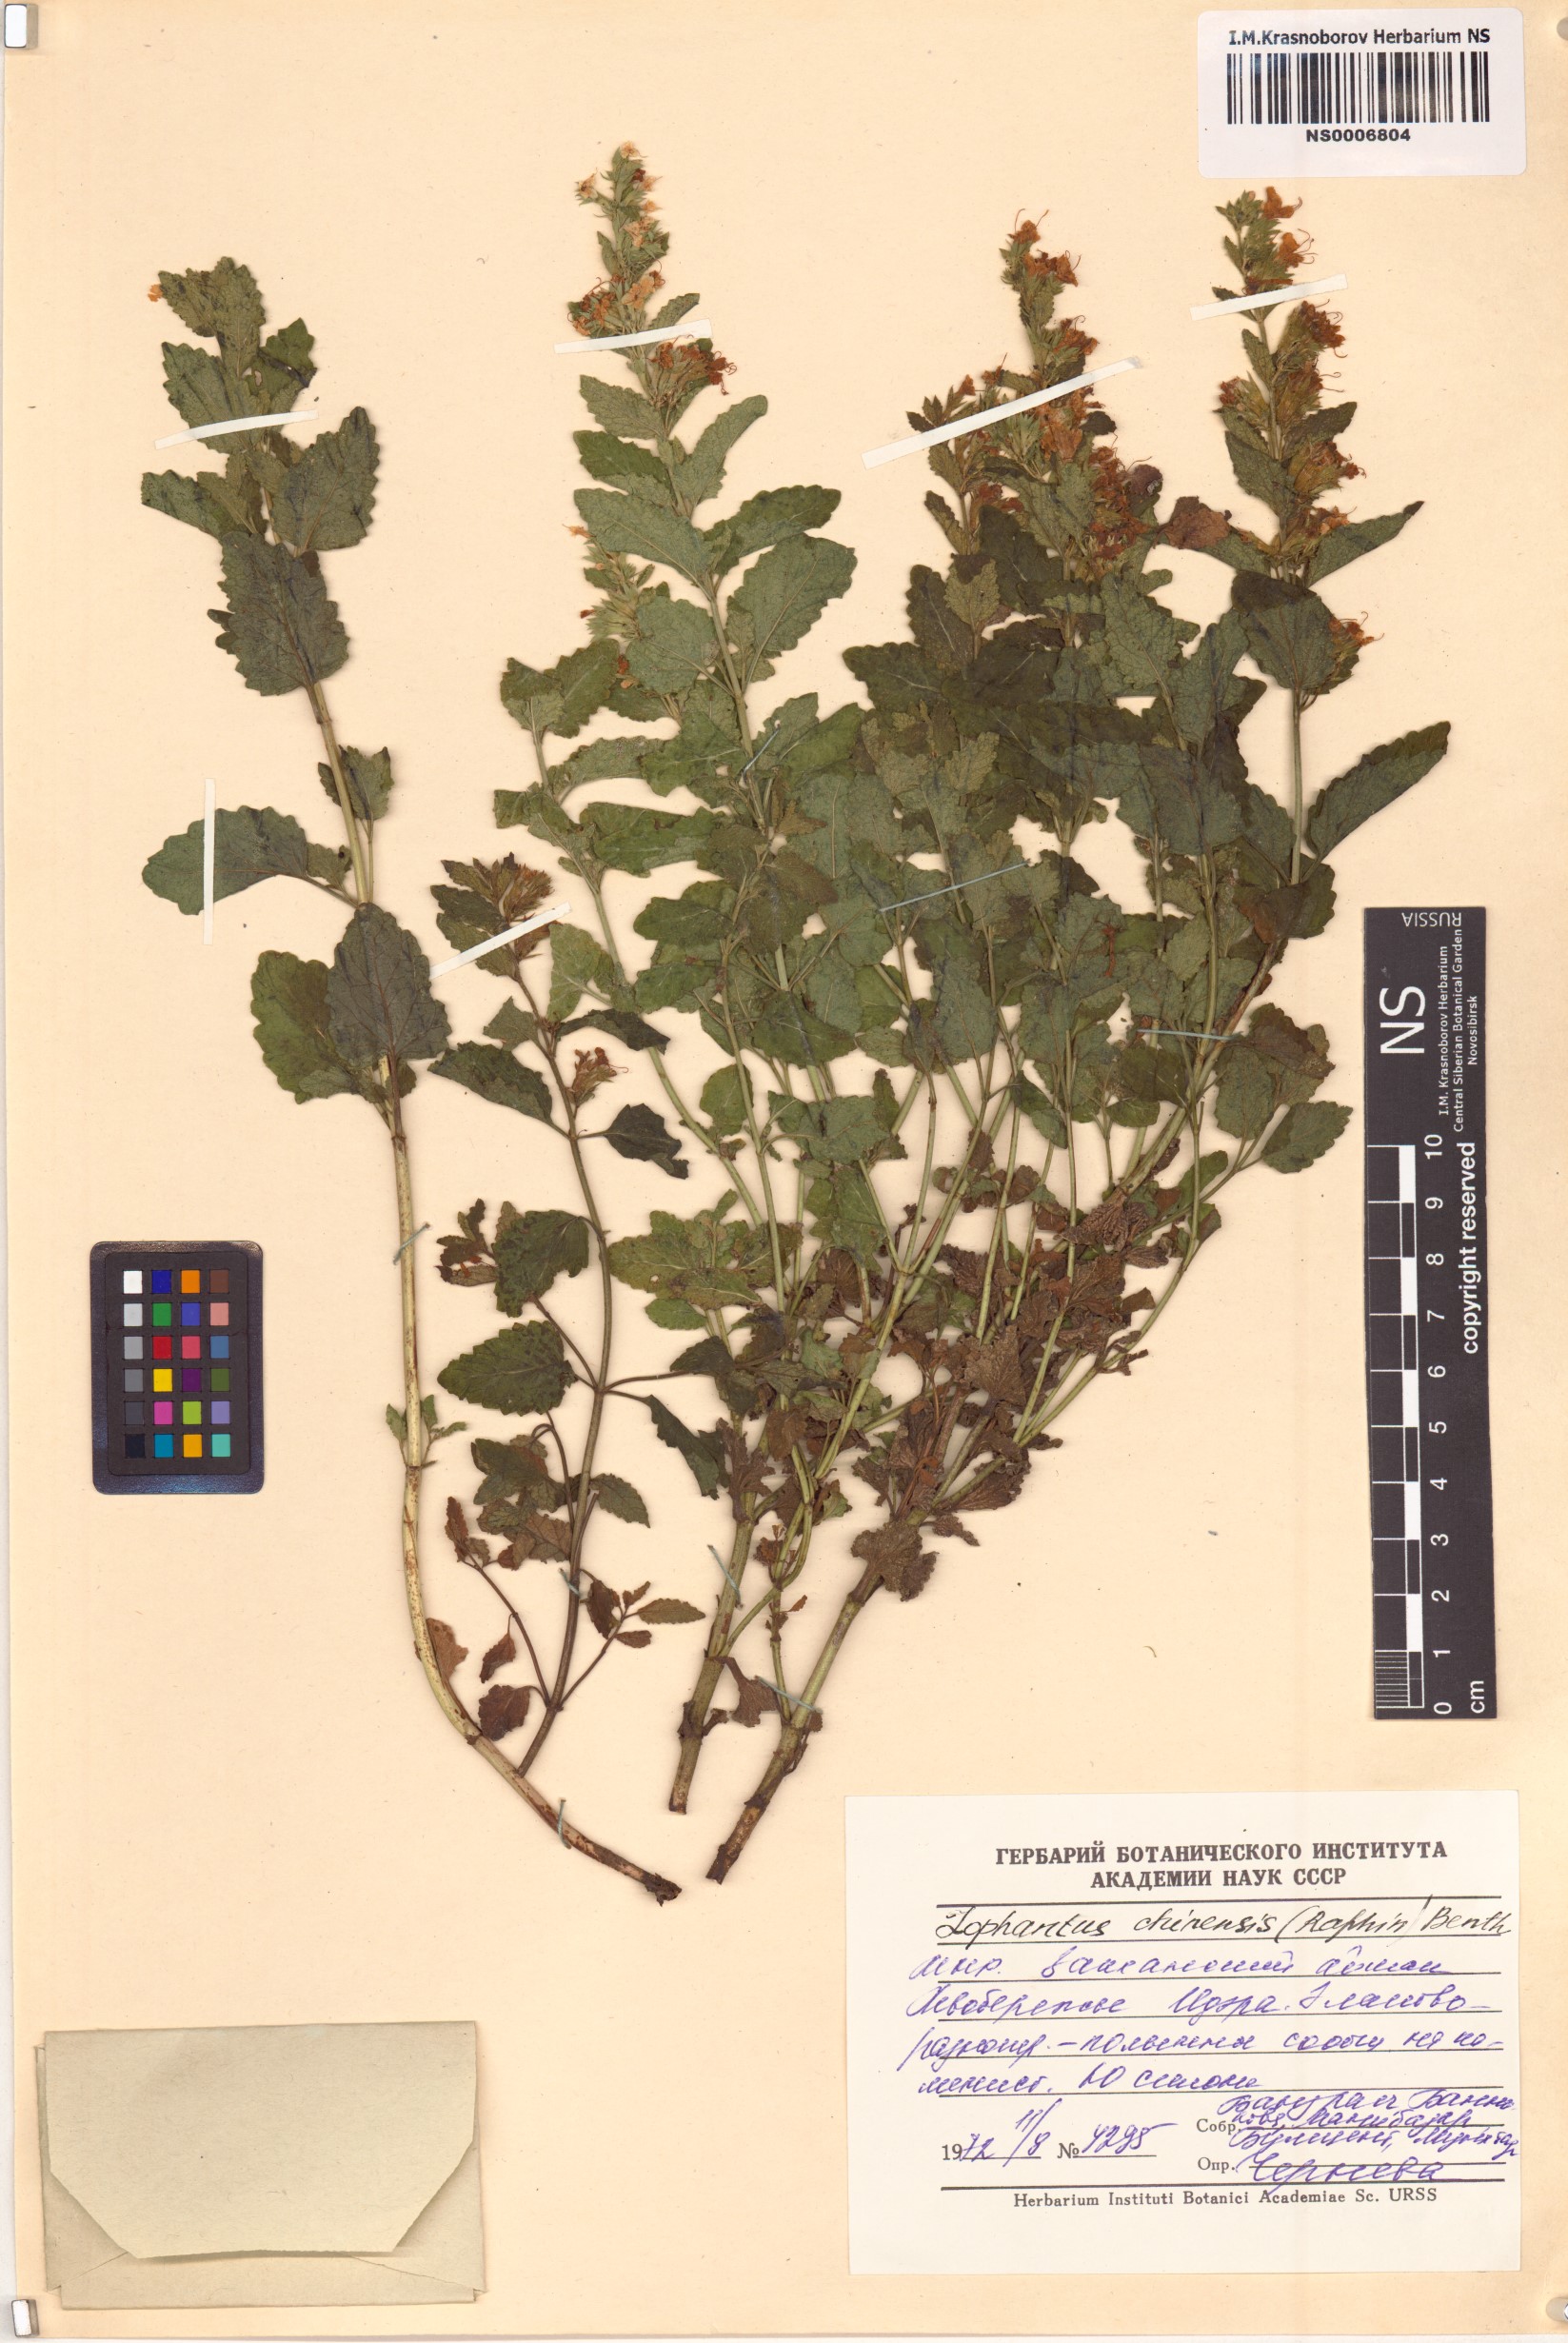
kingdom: Plantae
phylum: Tracheophyta
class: Magnoliopsida
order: Lamiales
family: Lamiaceae
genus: Nepeta
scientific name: Nepeta lophanthus
